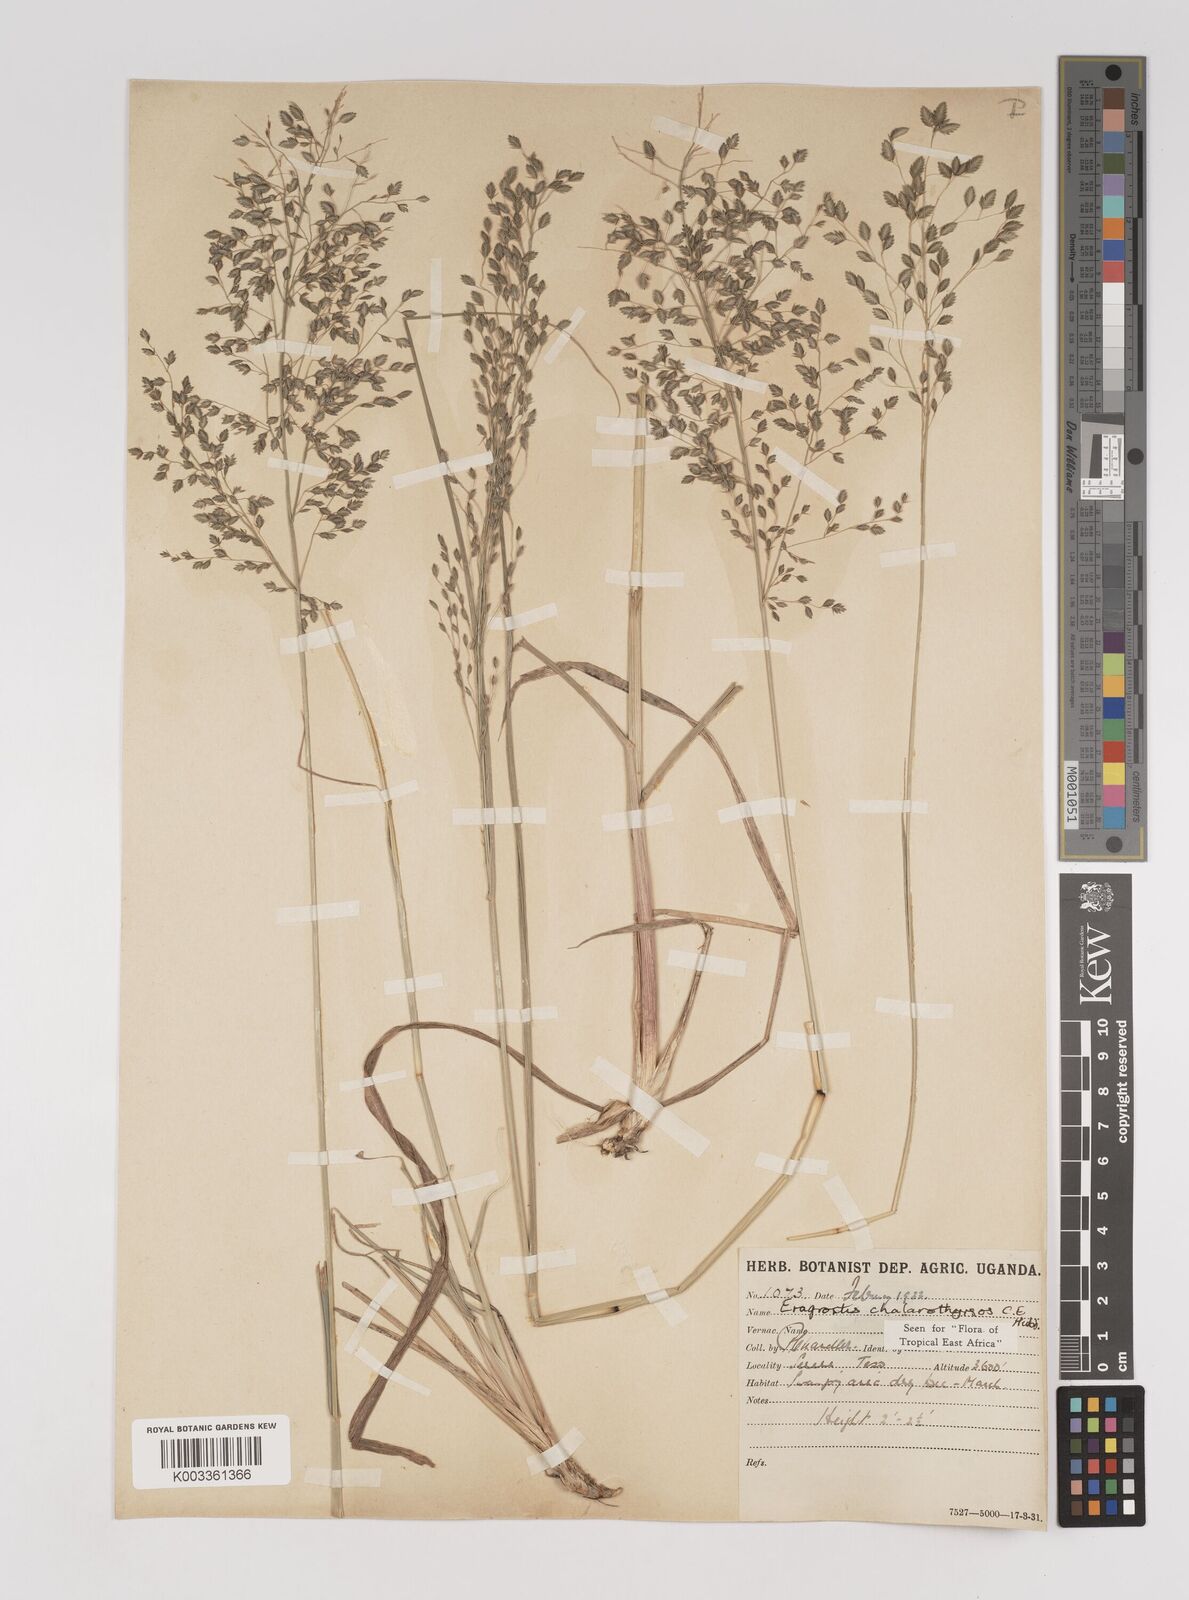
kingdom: Plantae
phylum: Tracheophyta
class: Liliopsida
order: Poales
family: Poaceae
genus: Eragrostis
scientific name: Eragrostis chalarothyrsos
